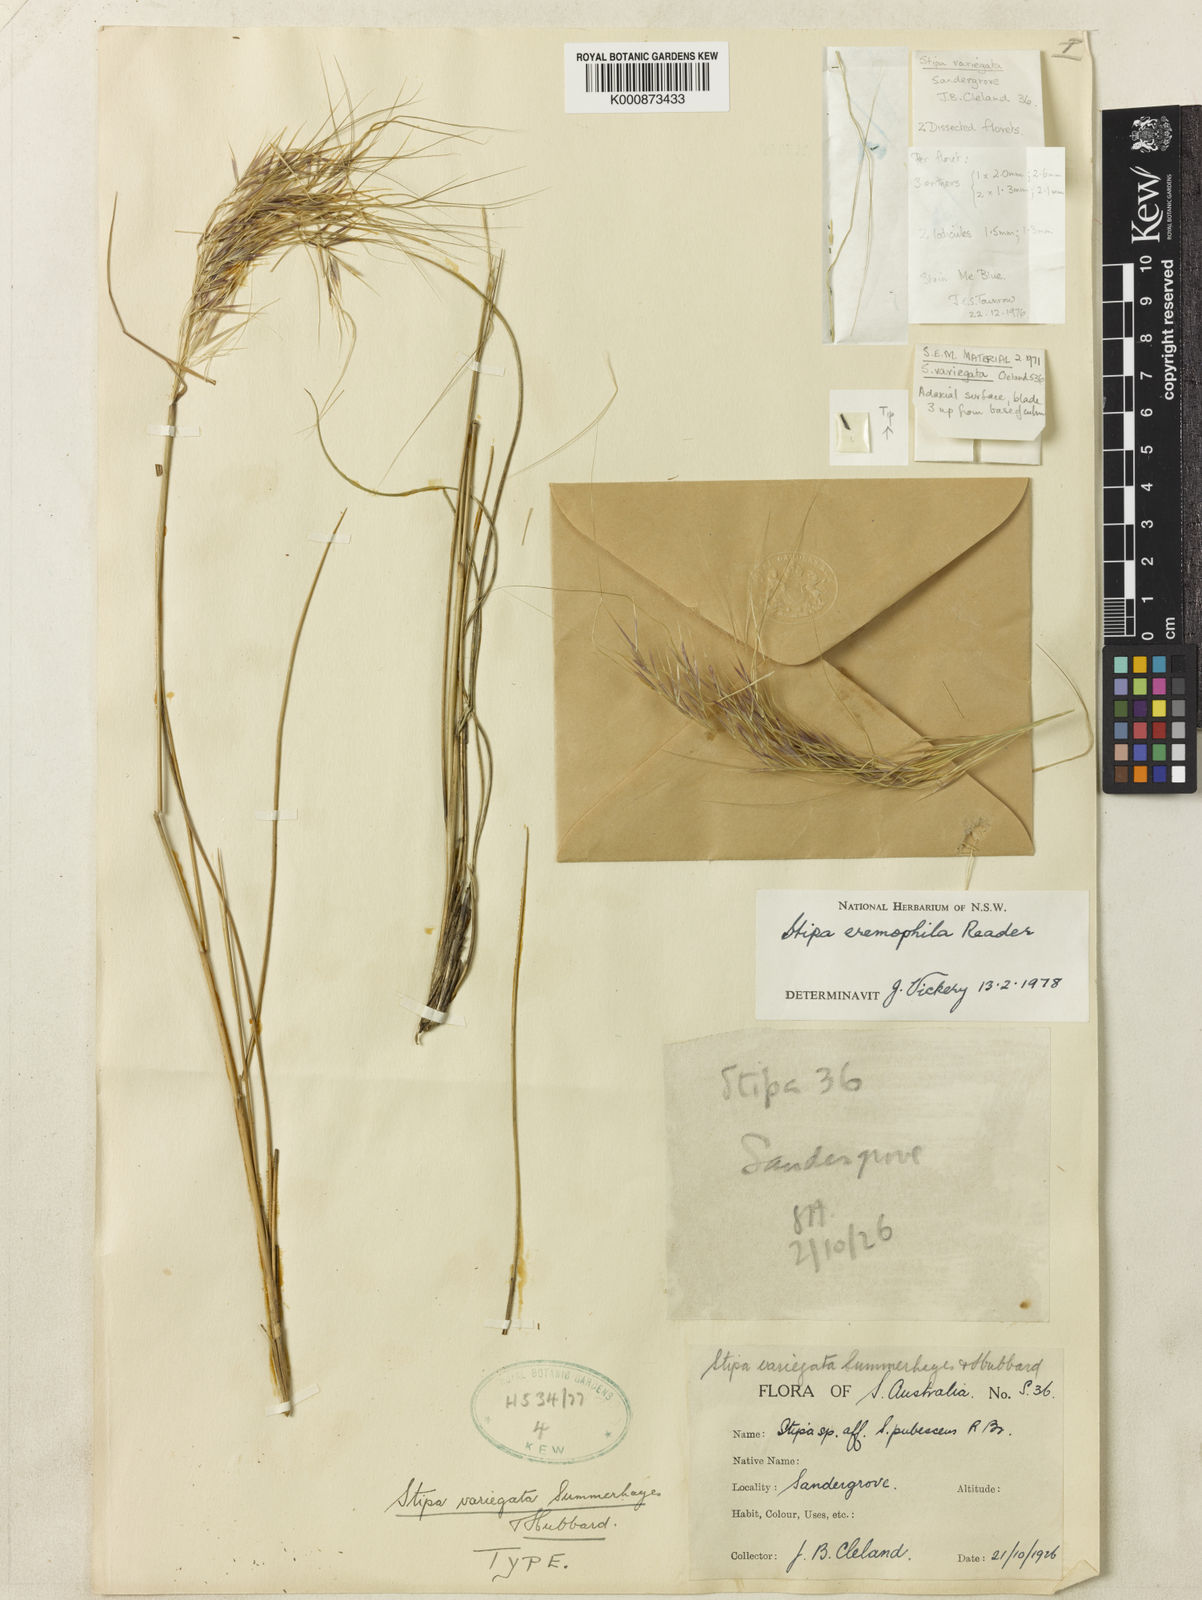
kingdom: Plantae
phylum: Tracheophyta
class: Liliopsida
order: Poales
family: Poaceae
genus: Austrostipa
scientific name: Austrostipa eremophila
